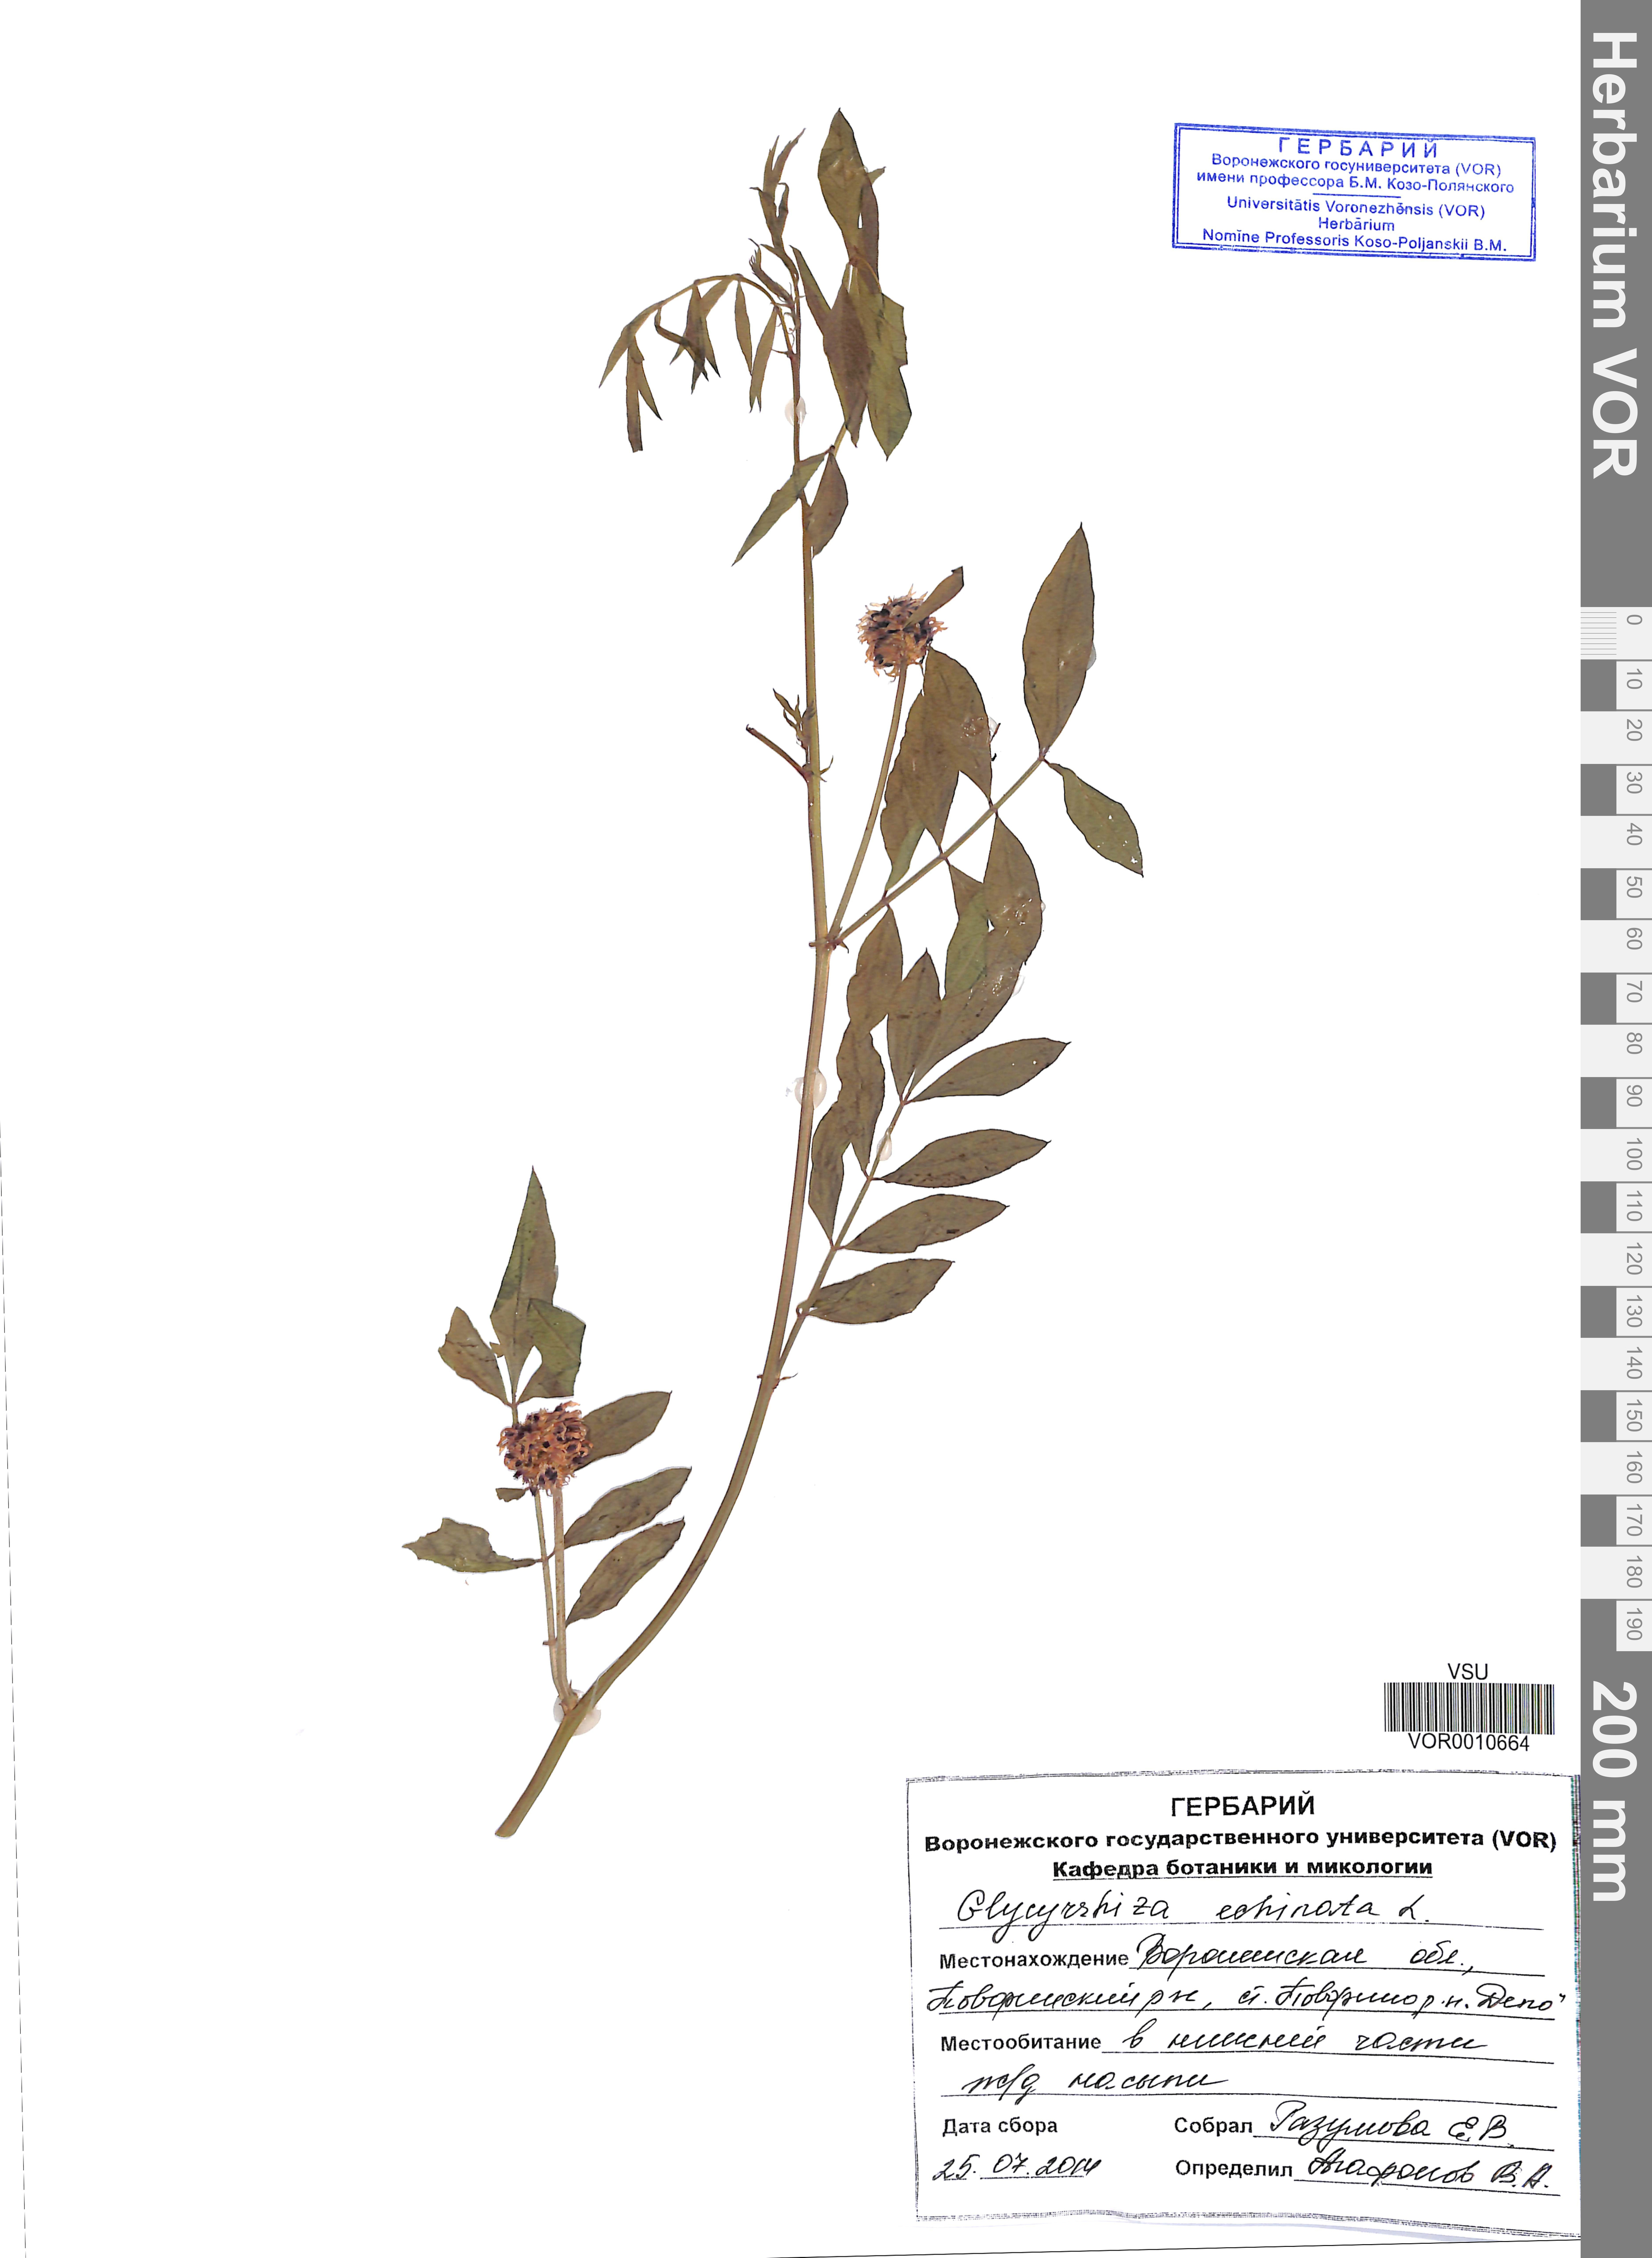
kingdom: Plantae
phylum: Tracheophyta
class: Magnoliopsida
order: Fabales
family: Fabaceae
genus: Glycyrrhiza
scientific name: Glycyrrhiza echinata
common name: German liquorice
